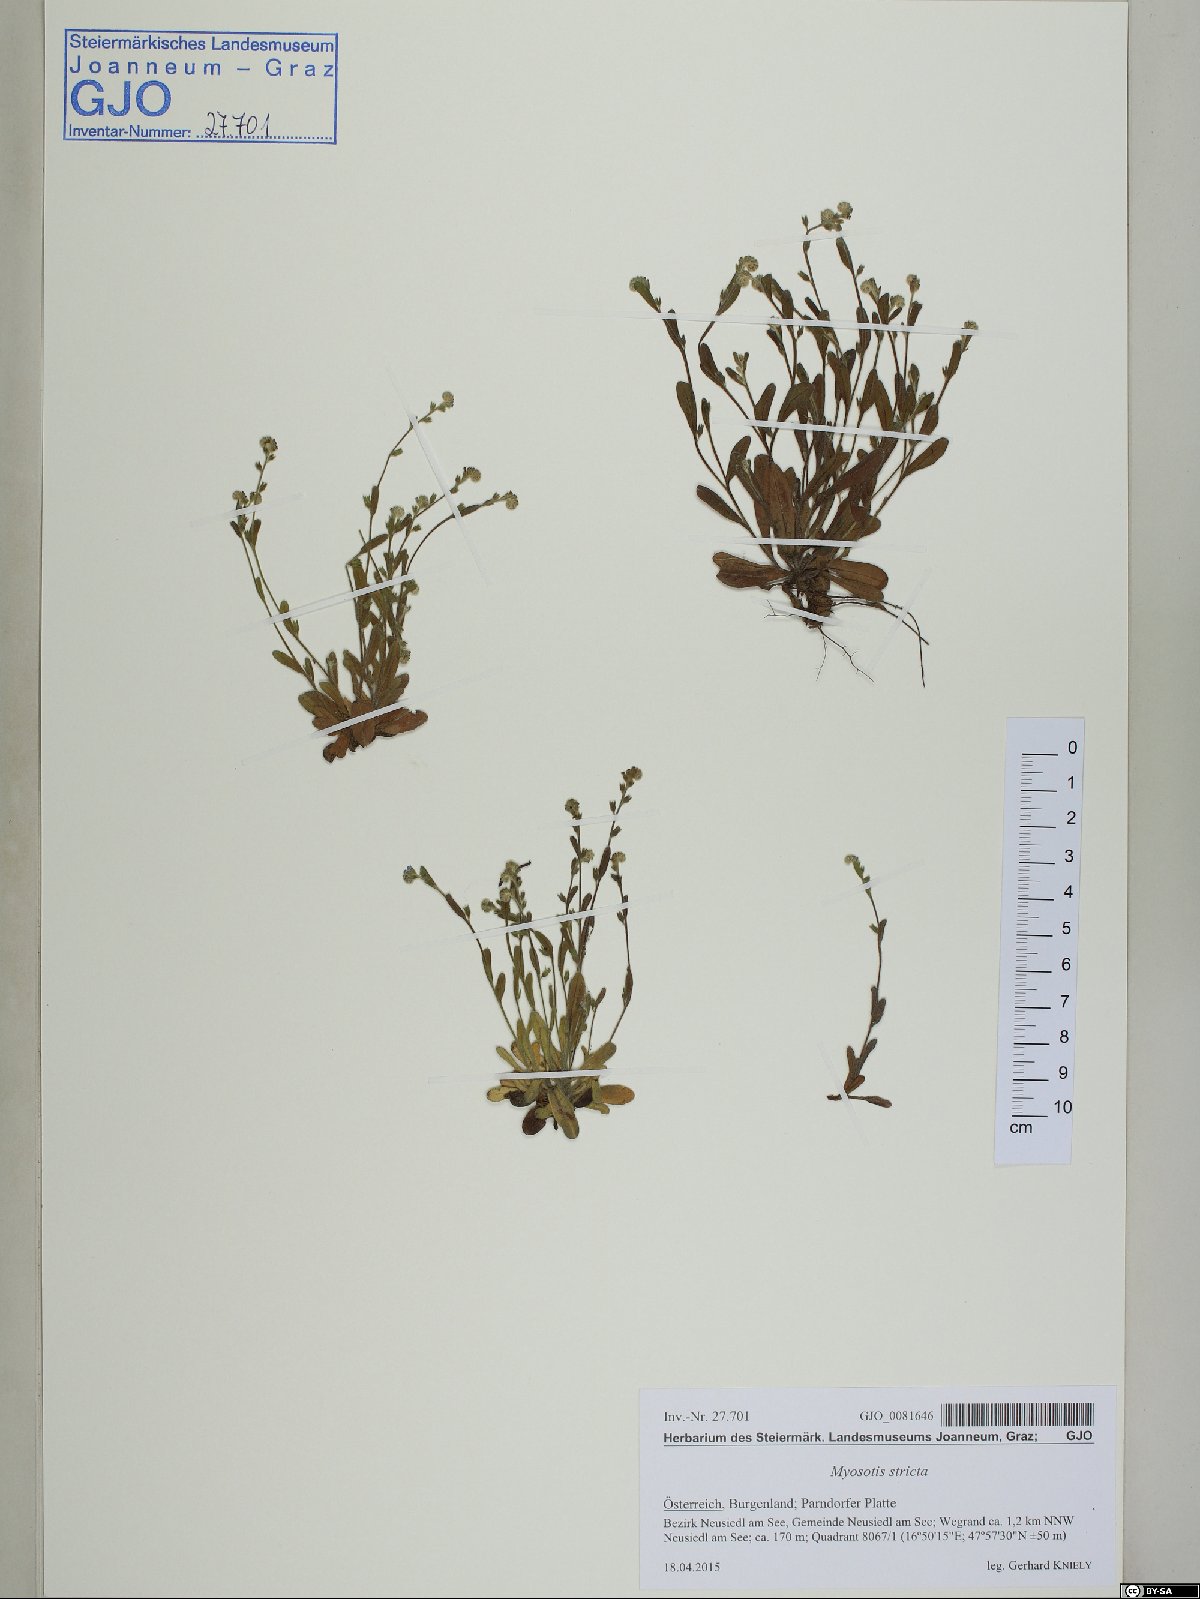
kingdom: Plantae
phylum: Tracheophyta
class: Magnoliopsida
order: Boraginales
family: Boraginaceae
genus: Myosotis
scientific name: Myosotis stricta
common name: Strict forget-me-not
